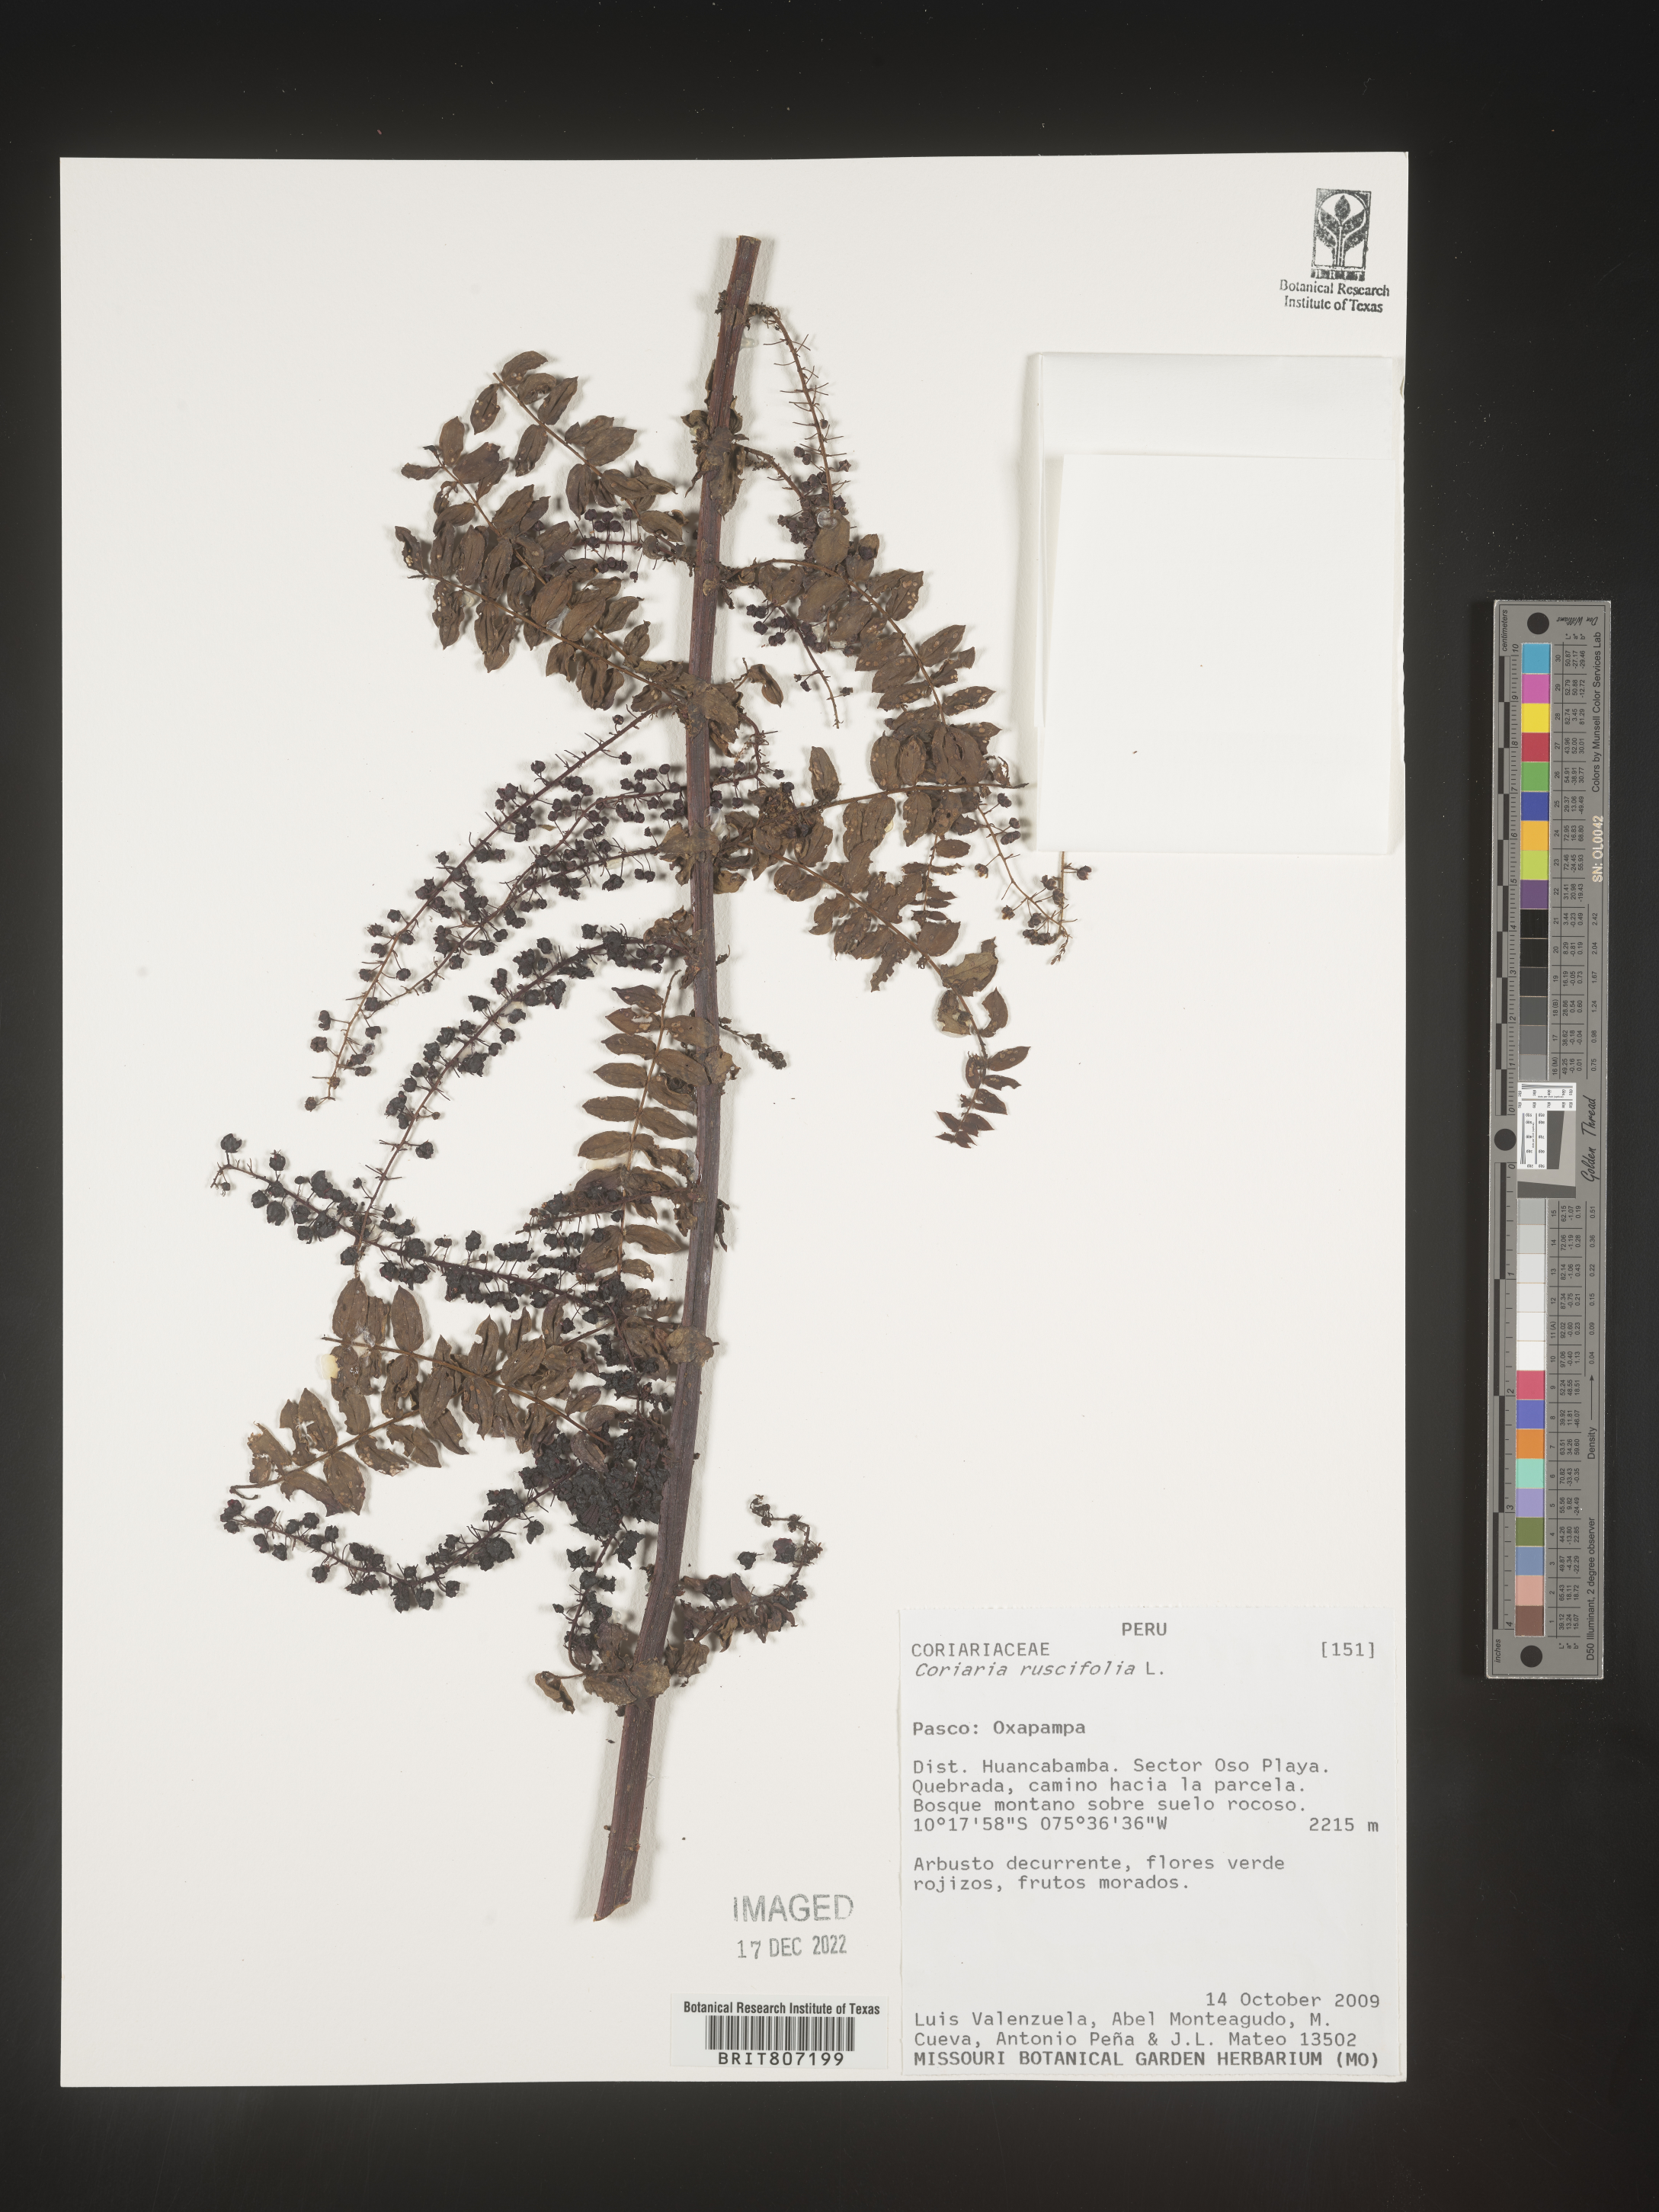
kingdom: Plantae
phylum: Tracheophyta
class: Magnoliopsida
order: Cucurbitales
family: Coriariaceae
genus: Coriaria
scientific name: Coriaria
